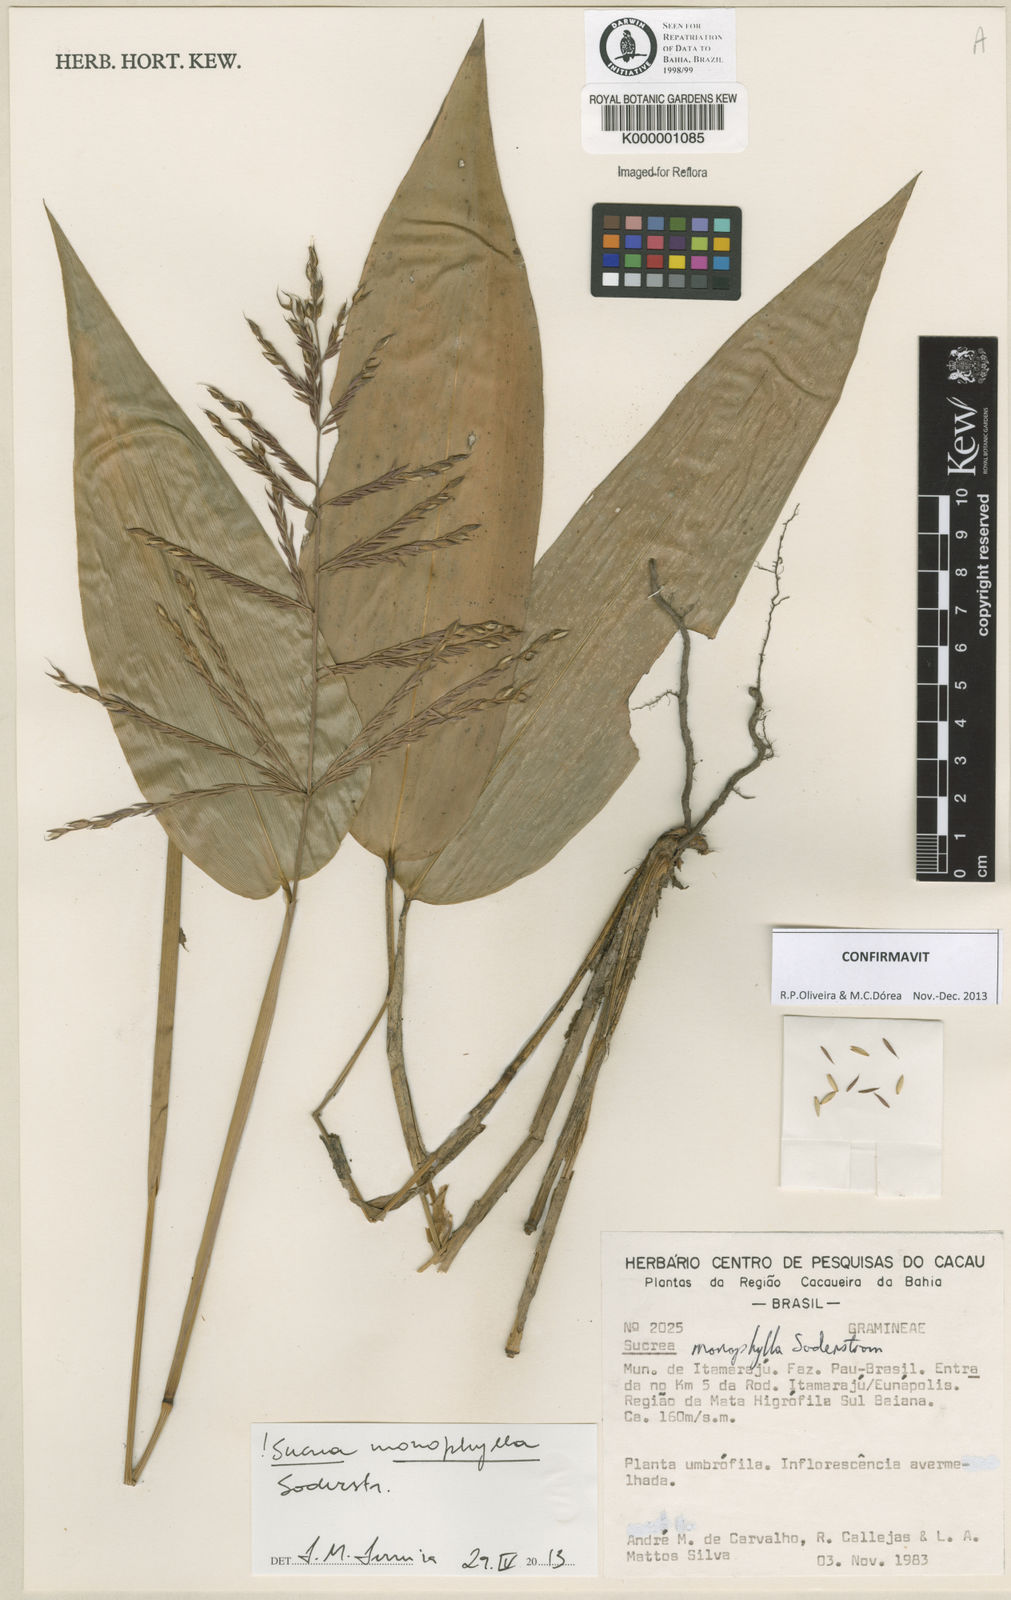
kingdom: Plantae
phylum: Tracheophyta
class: Liliopsida
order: Poales
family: Poaceae
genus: Raddia
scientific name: Raddia monophylla
